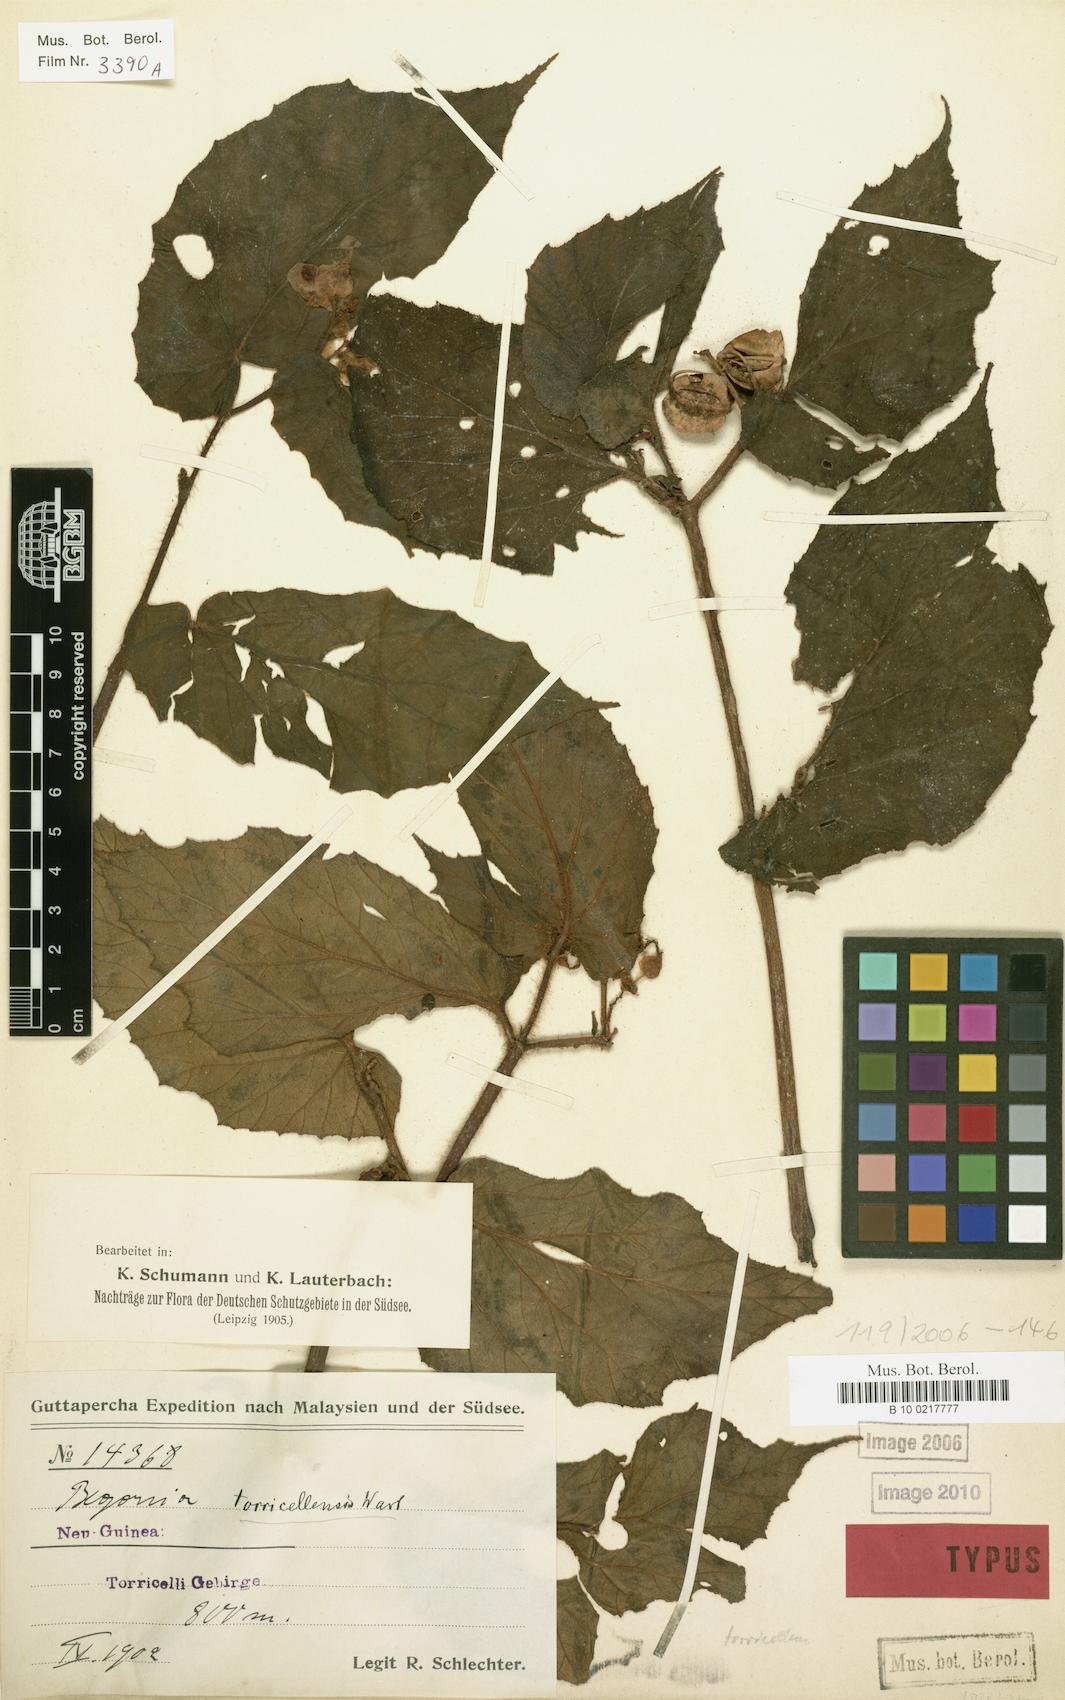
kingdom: Plantae
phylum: Tracheophyta
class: Magnoliopsida
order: Cucurbitales
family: Begoniaceae
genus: Begonia
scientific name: Begonia torricellensis
